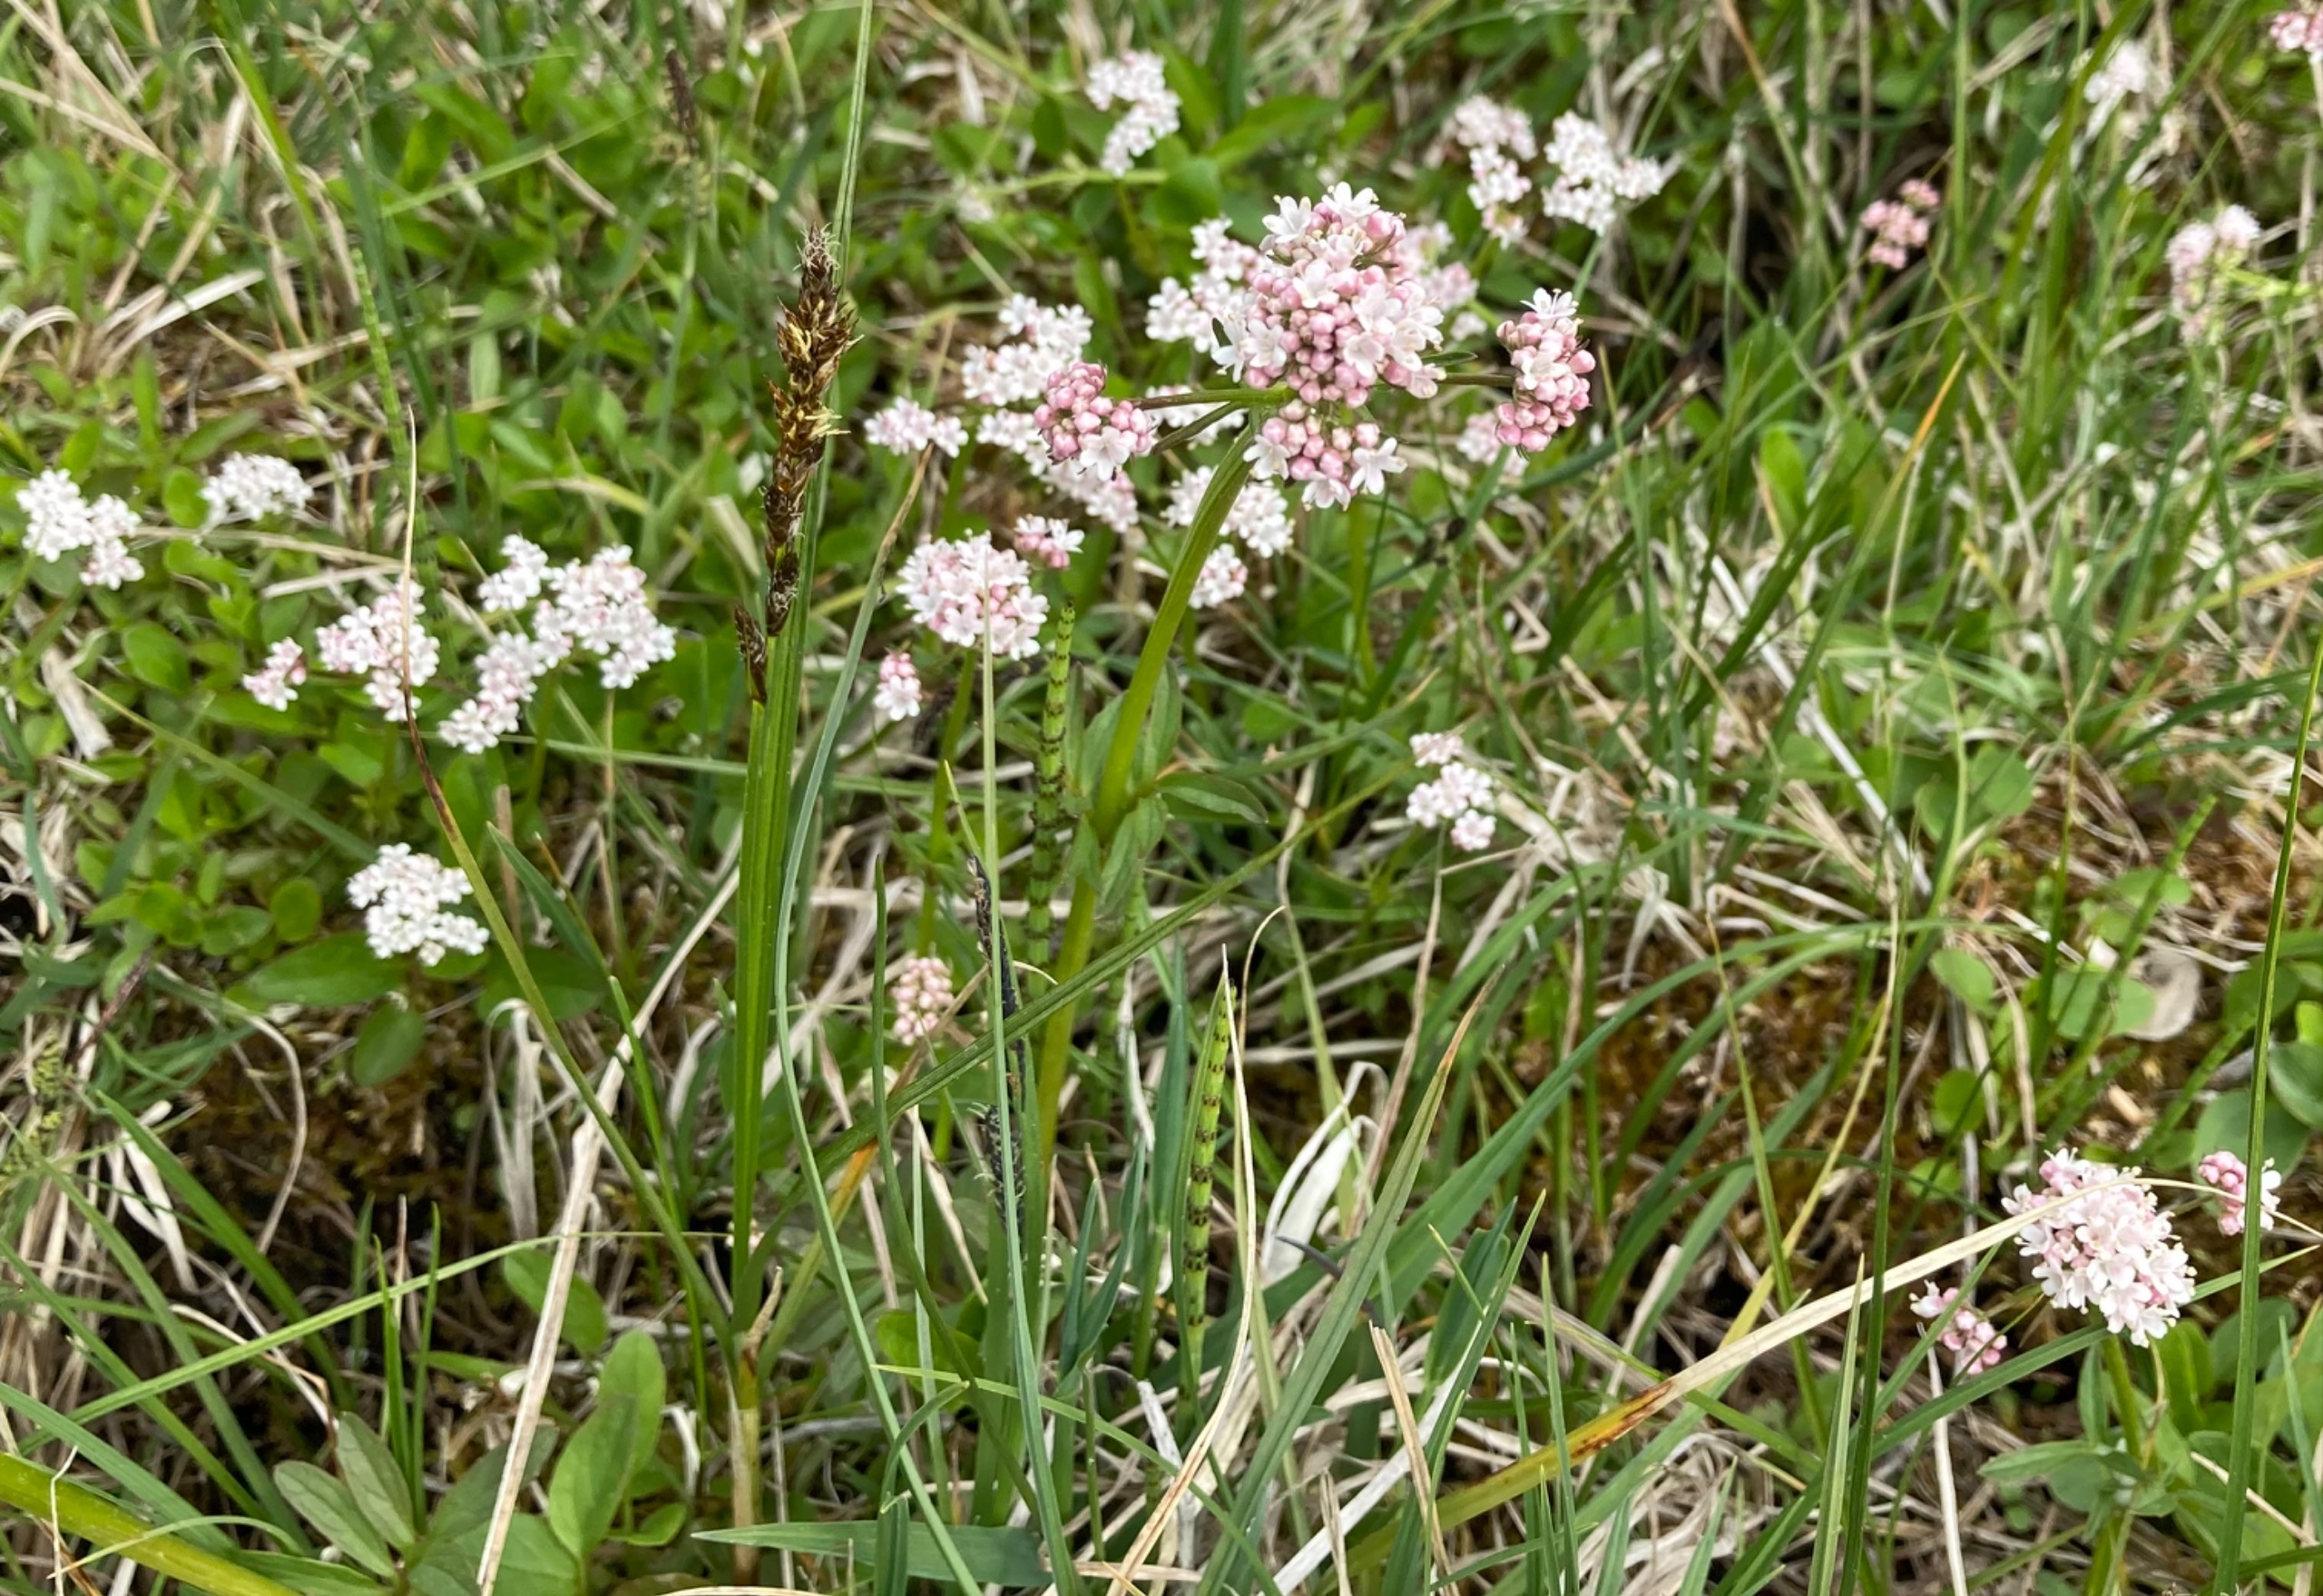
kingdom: Plantae
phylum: Tracheophyta
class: Magnoliopsida
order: Dipsacales
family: Caprifoliaceae
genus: Valeriana
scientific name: Valeriana dioica
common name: Tvebo baldrian
